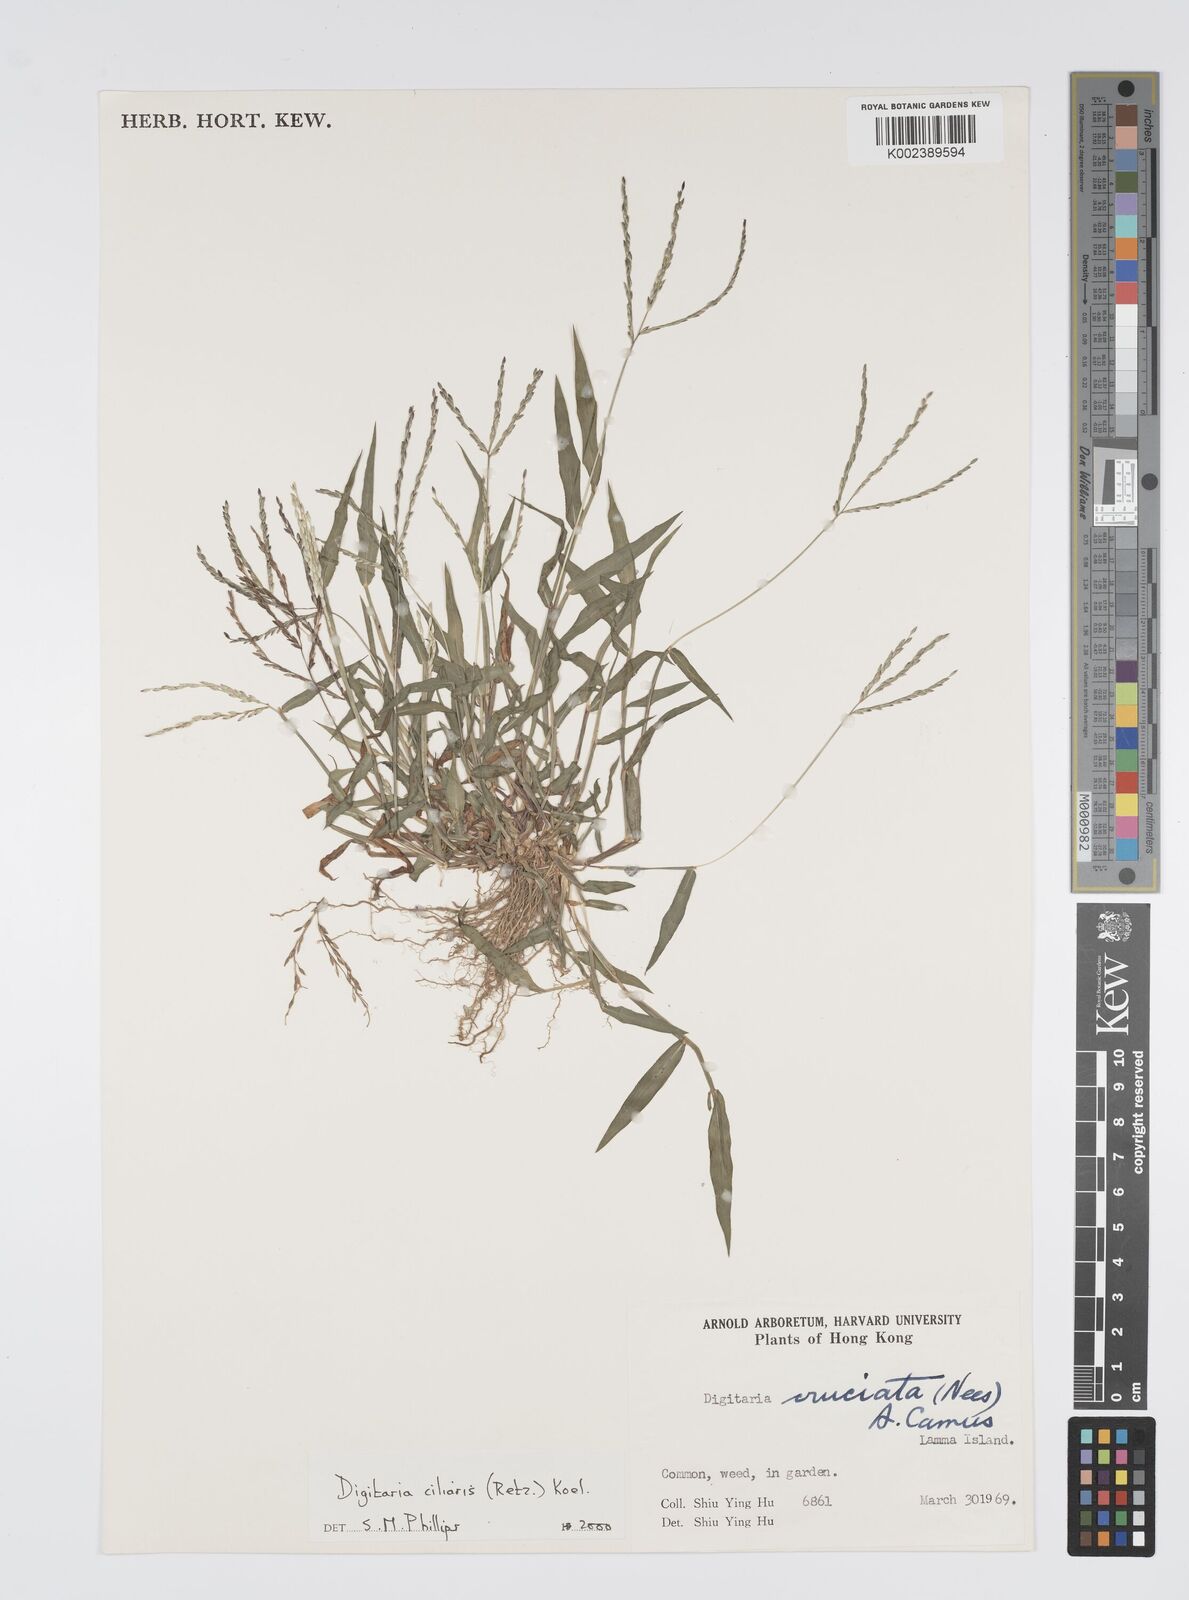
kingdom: Plantae
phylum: Tracheophyta
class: Liliopsida
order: Poales
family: Poaceae
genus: Digitaria
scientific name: Digitaria ciliaris
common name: Tropical finger-grass
